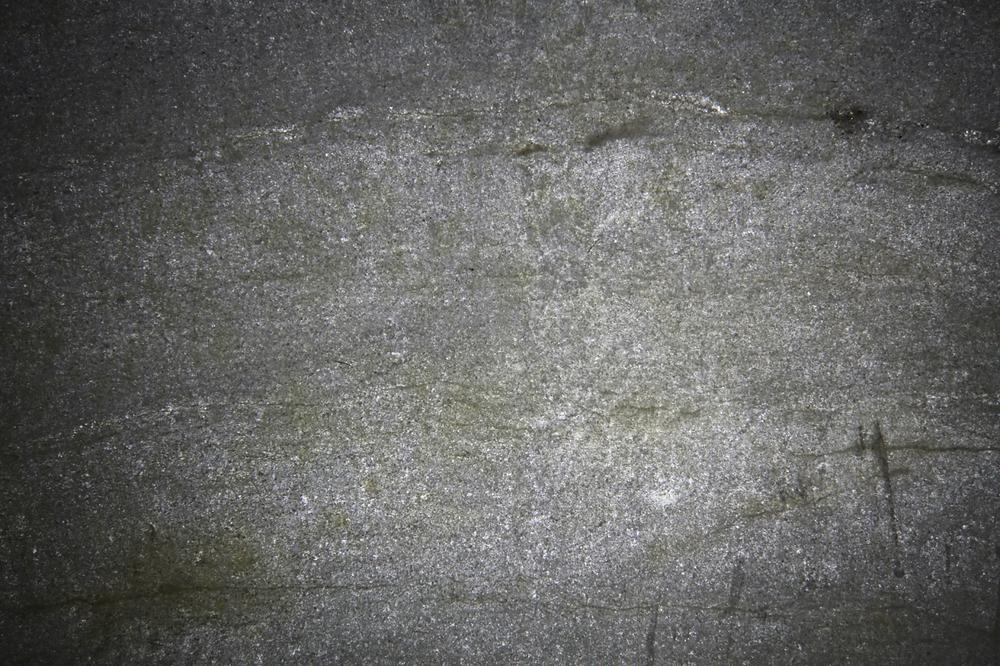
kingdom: Animalia
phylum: Porifera
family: Pseudolabechiidae
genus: Vikingia
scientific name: Vikingia
